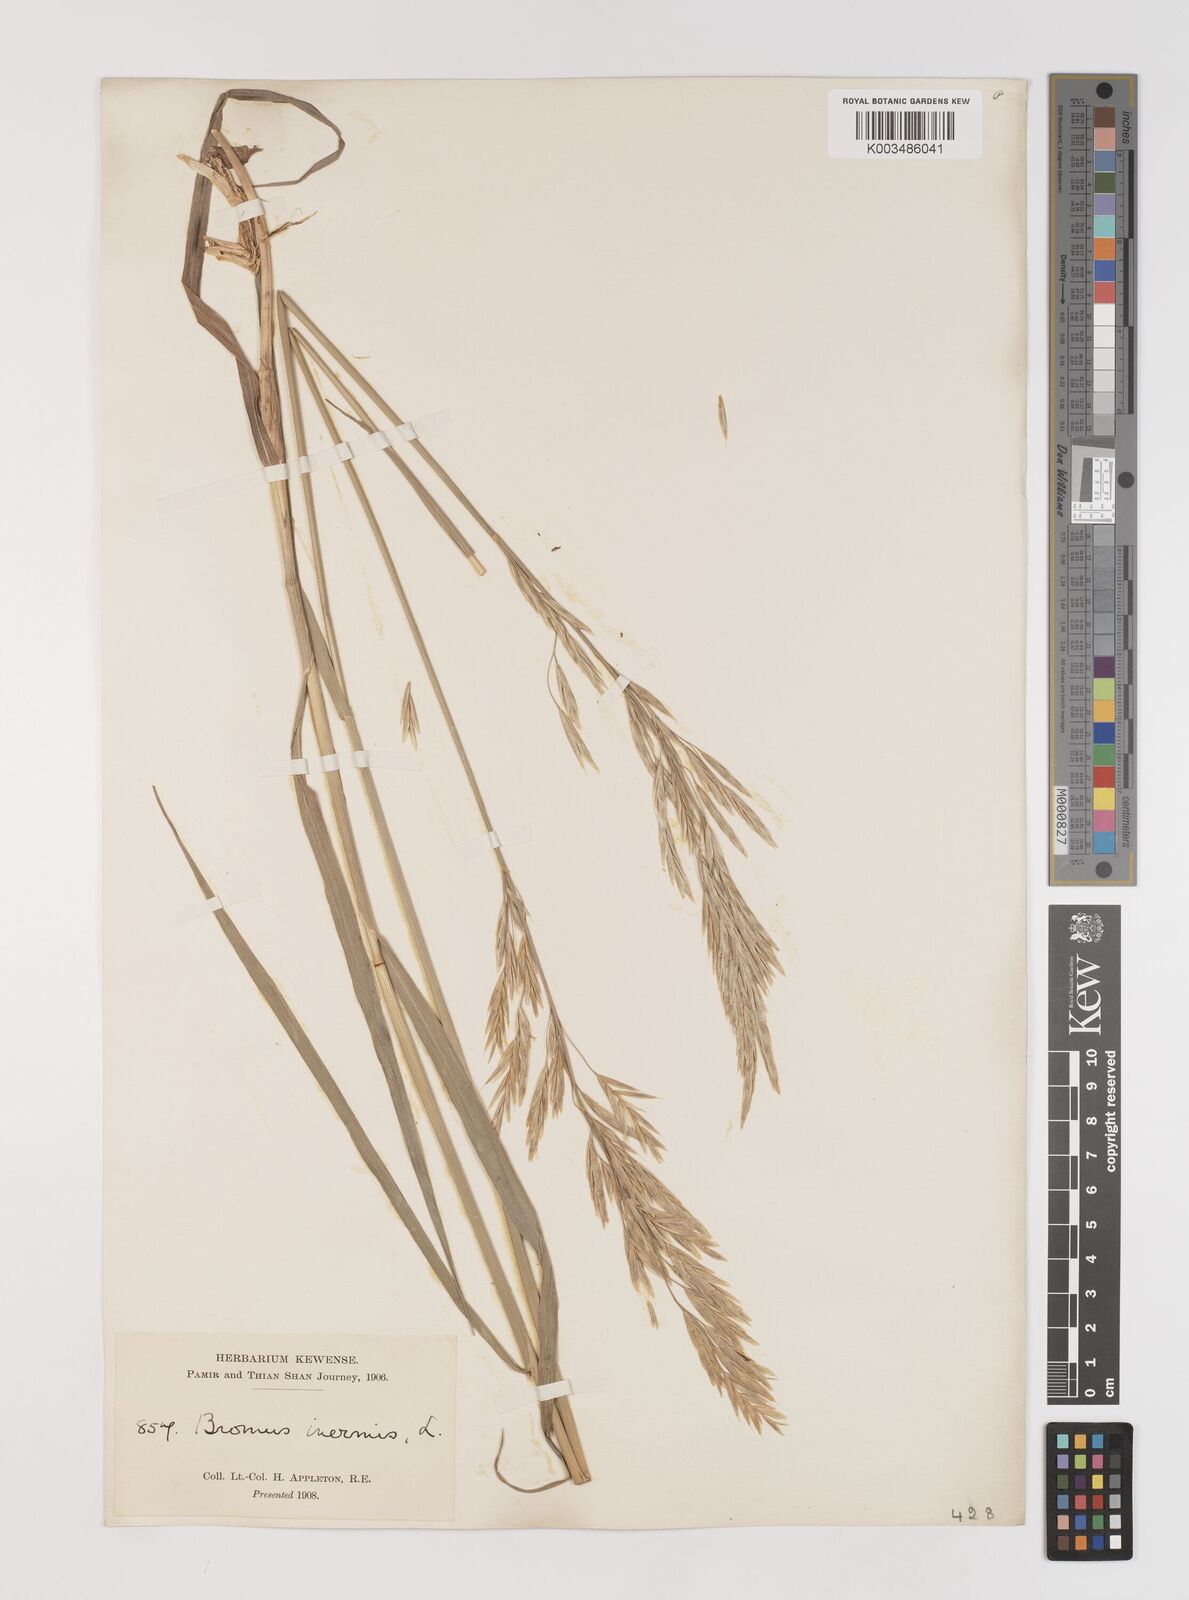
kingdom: Plantae
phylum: Tracheophyta
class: Liliopsida
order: Poales
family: Poaceae
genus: Bromus
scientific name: Bromus inermis
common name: Smooth brome
